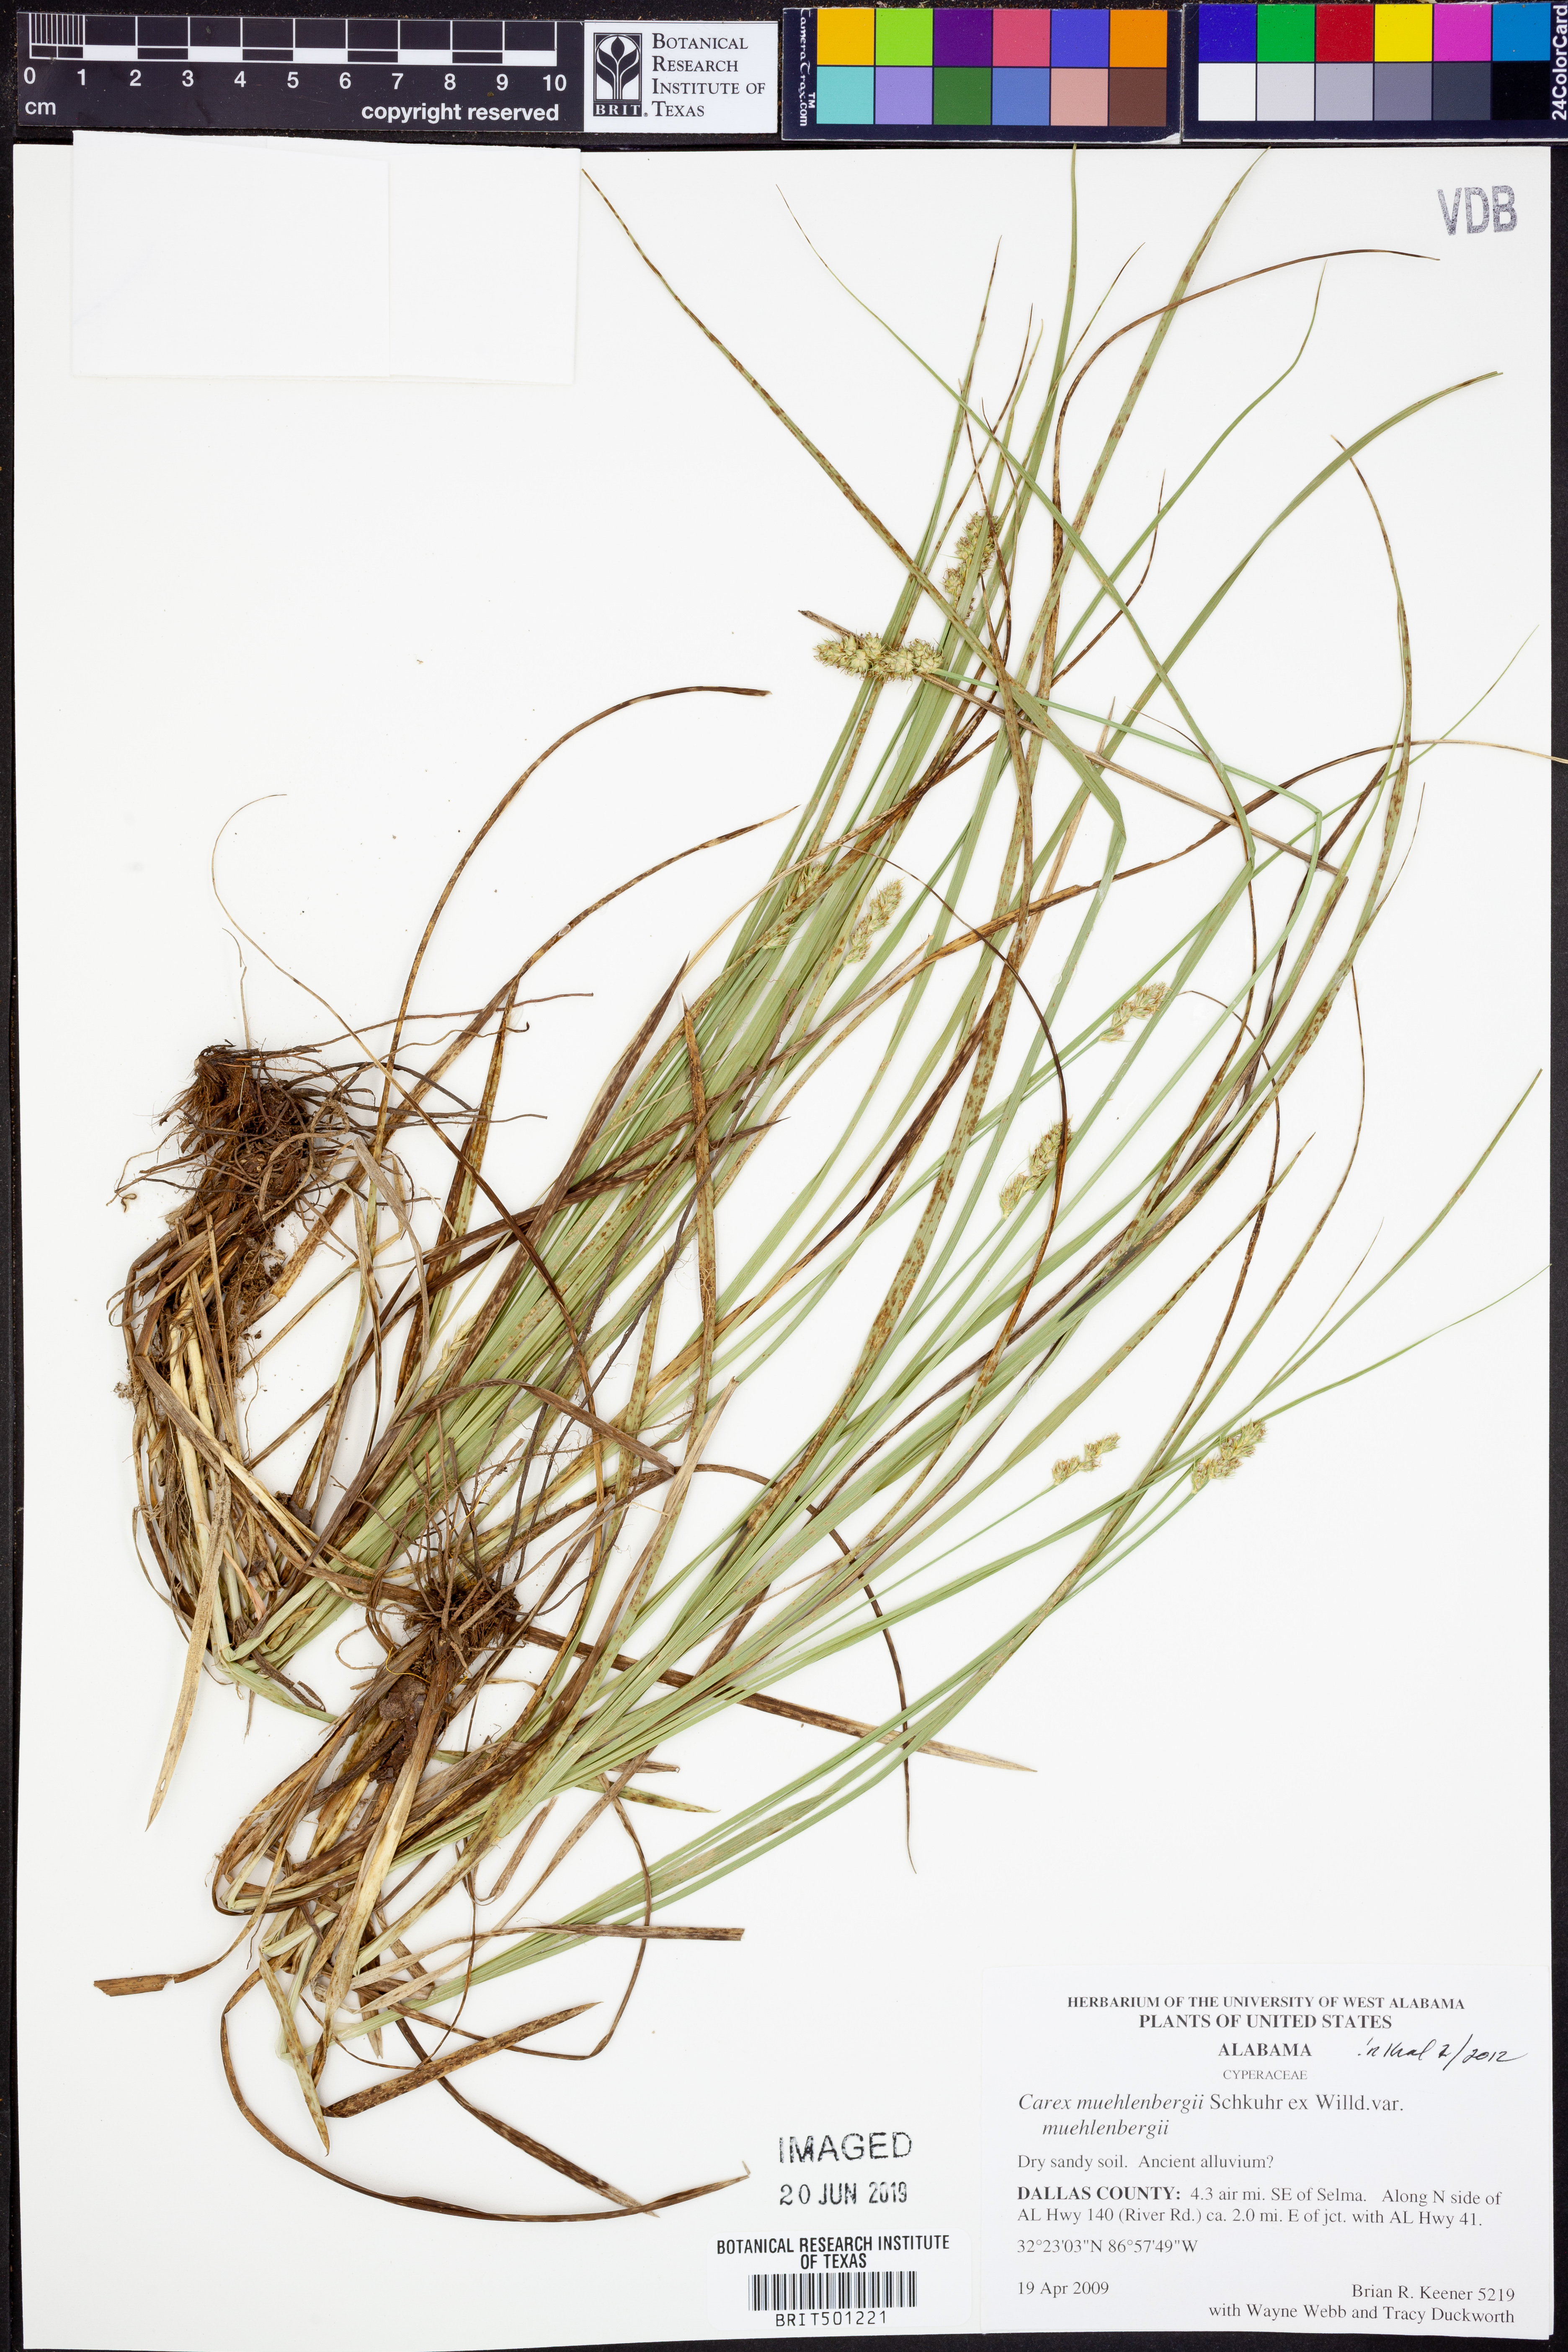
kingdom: Plantae
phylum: Tracheophyta
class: Liliopsida
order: Poales
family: Cyperaceae
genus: Carex
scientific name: Carex muehlenbergii
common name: Muhlenberg's bracted sedge
